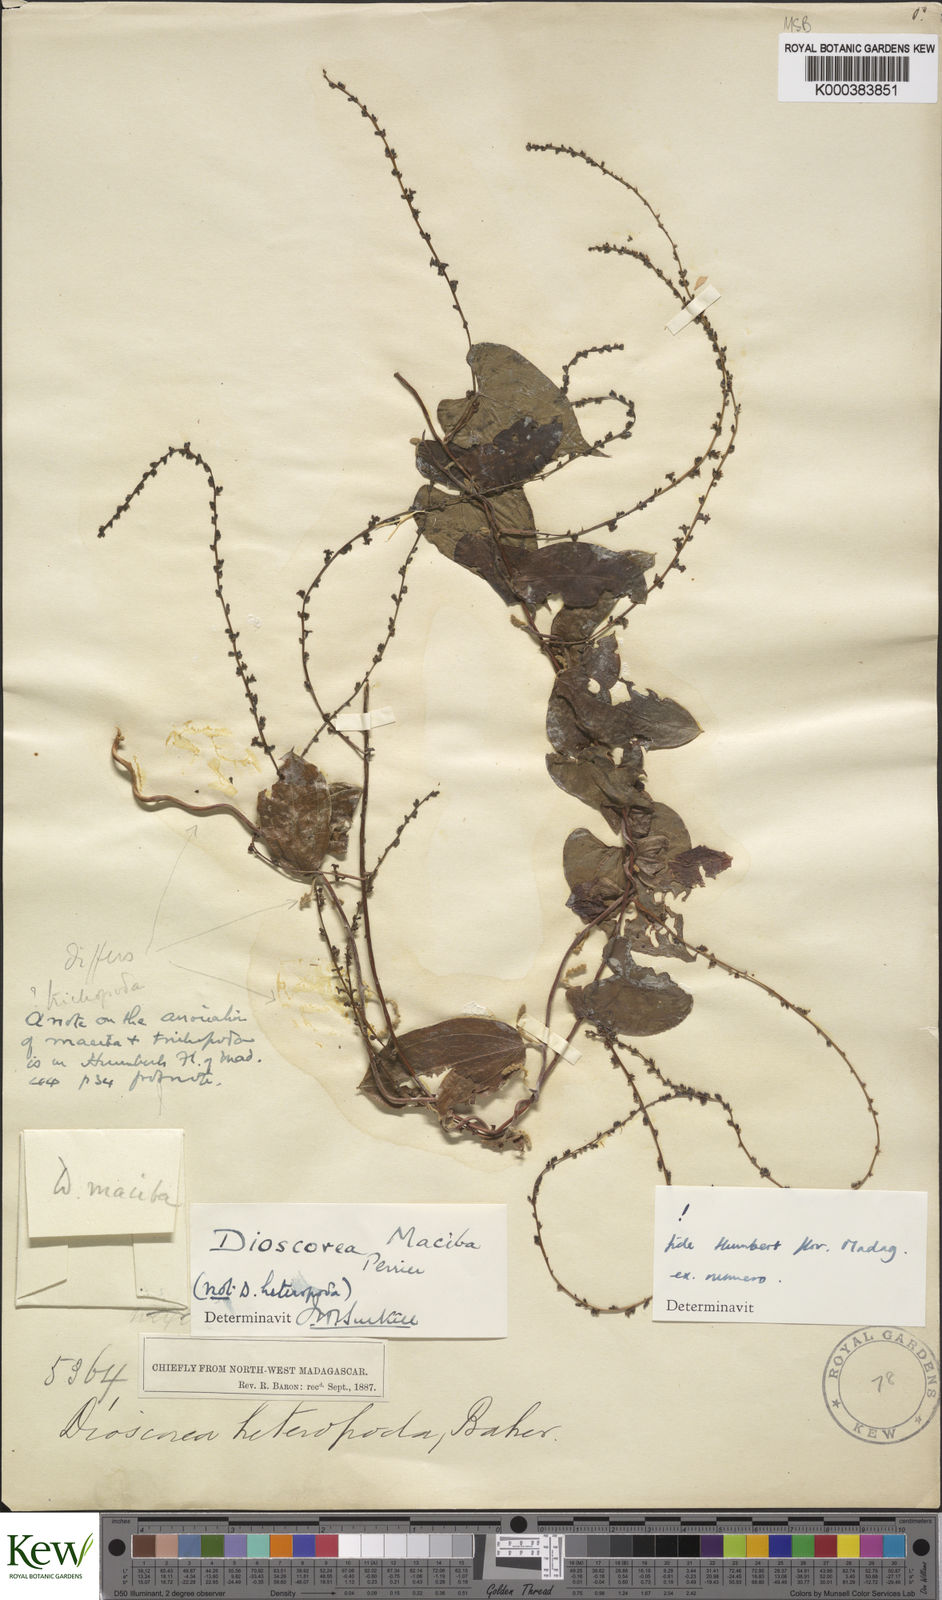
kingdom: Plantae
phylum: Tracheophyta
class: Liliopsida
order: Dioscoreales
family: Dioscoreaceae
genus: Dioscorea
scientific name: Dioscorea
